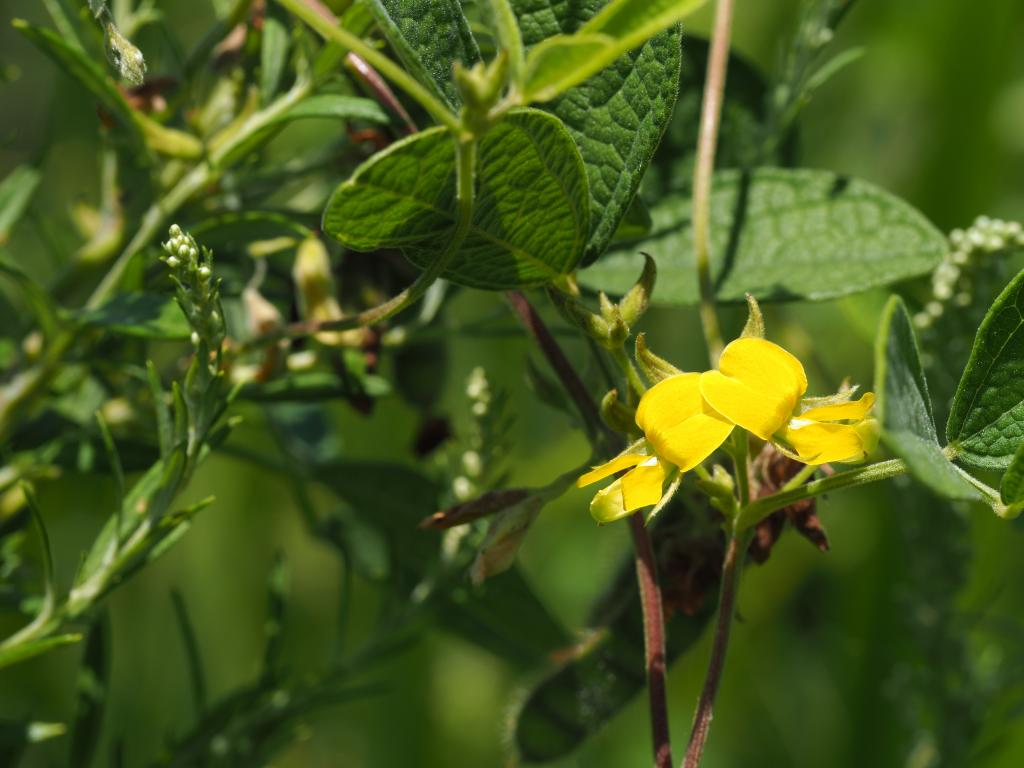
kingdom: Plantae
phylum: Tracheophyta
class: Magnoliopsida
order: Fabales
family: Fabaceae
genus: Cajanus
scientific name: Cajanus scarabaeoides
